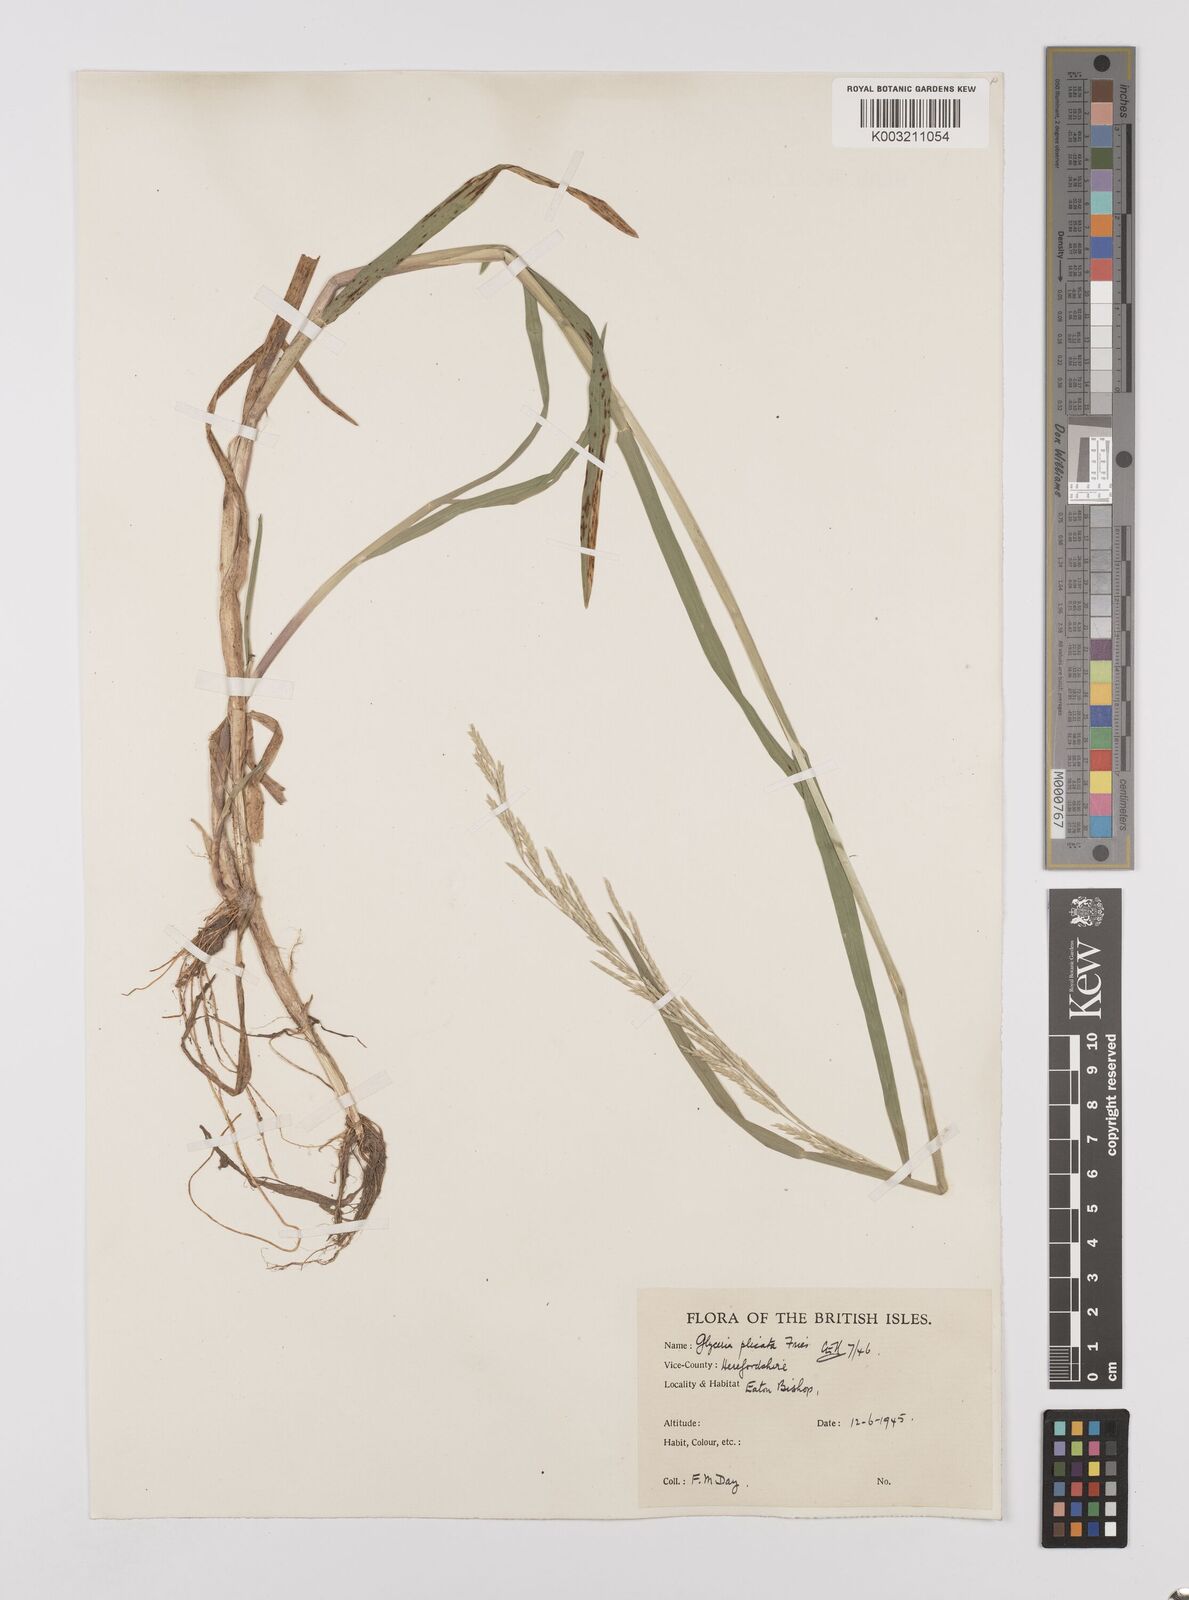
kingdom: Plantae
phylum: Tracheophyta
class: Liliopsida
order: Poales
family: Poaceae
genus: Glyceria
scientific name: Glyceria notata
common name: Plicate sweet-grass
